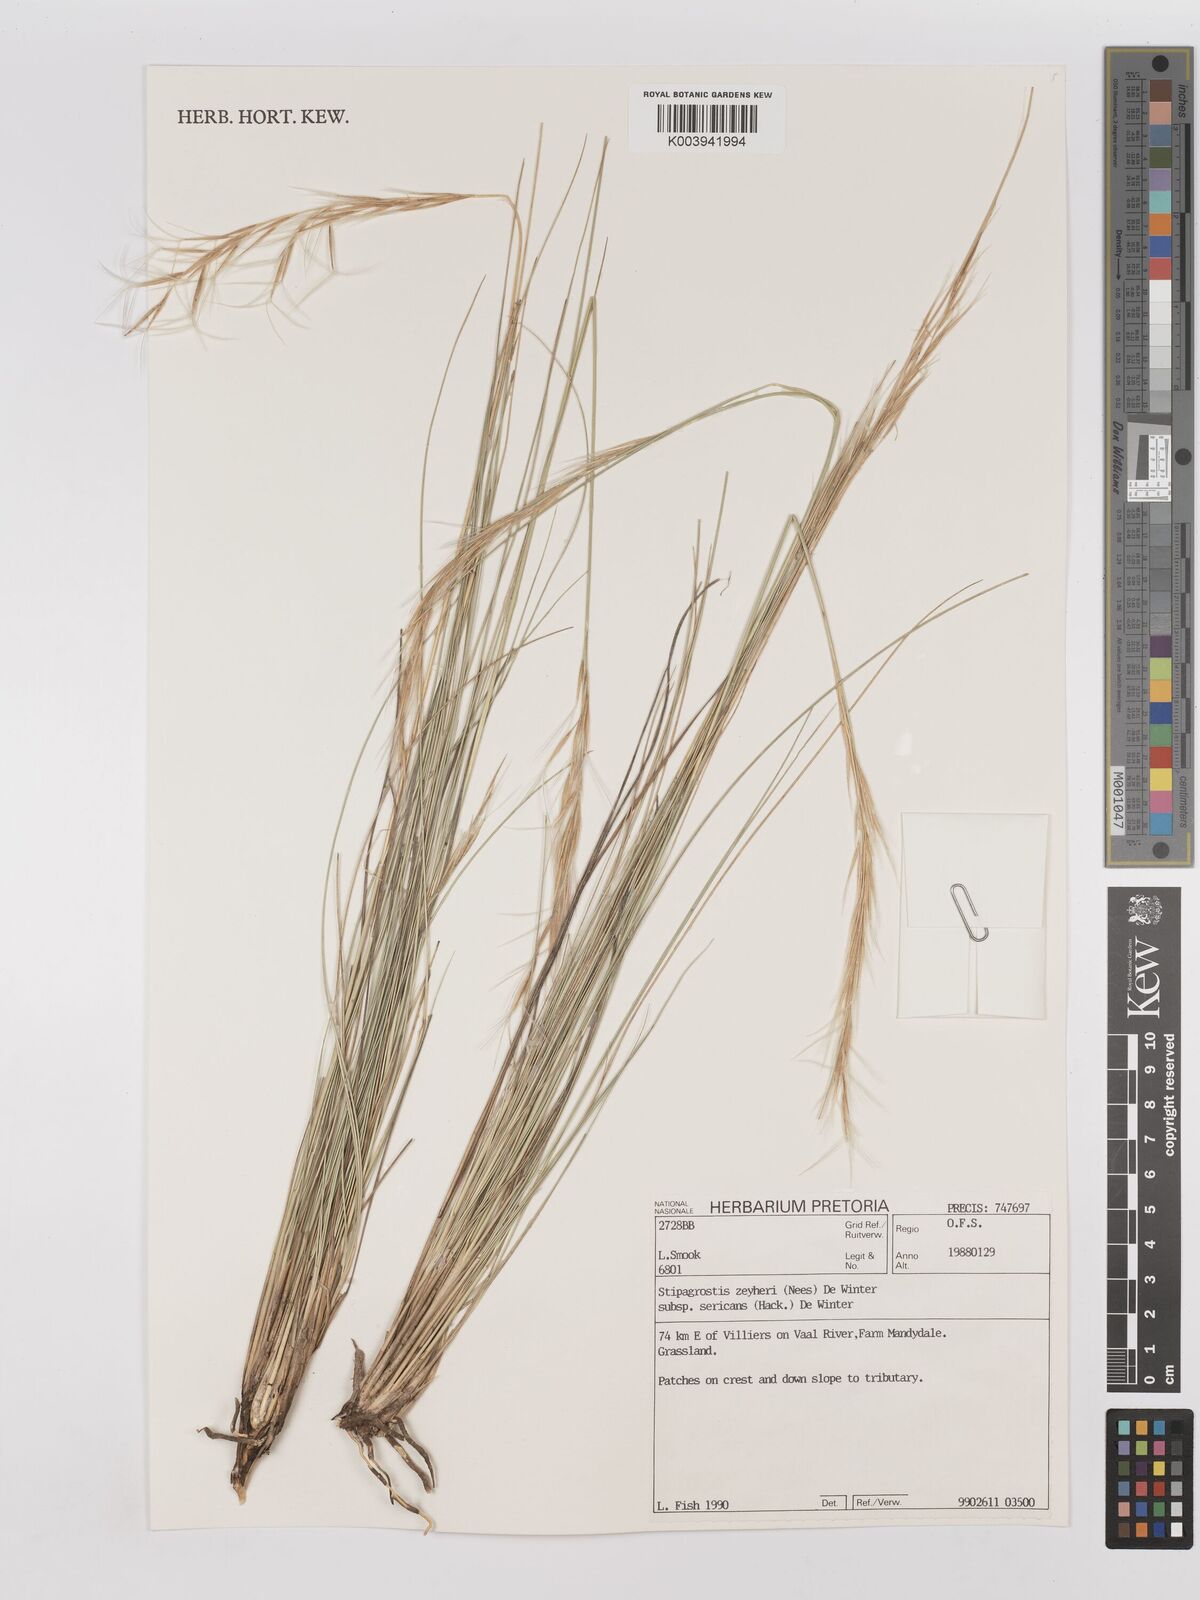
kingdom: Plantae
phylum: Tracheophyta
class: Liliopsida
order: Poales
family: Poaceae
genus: Stipagrostis
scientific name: Stipagrostis zeyheri
